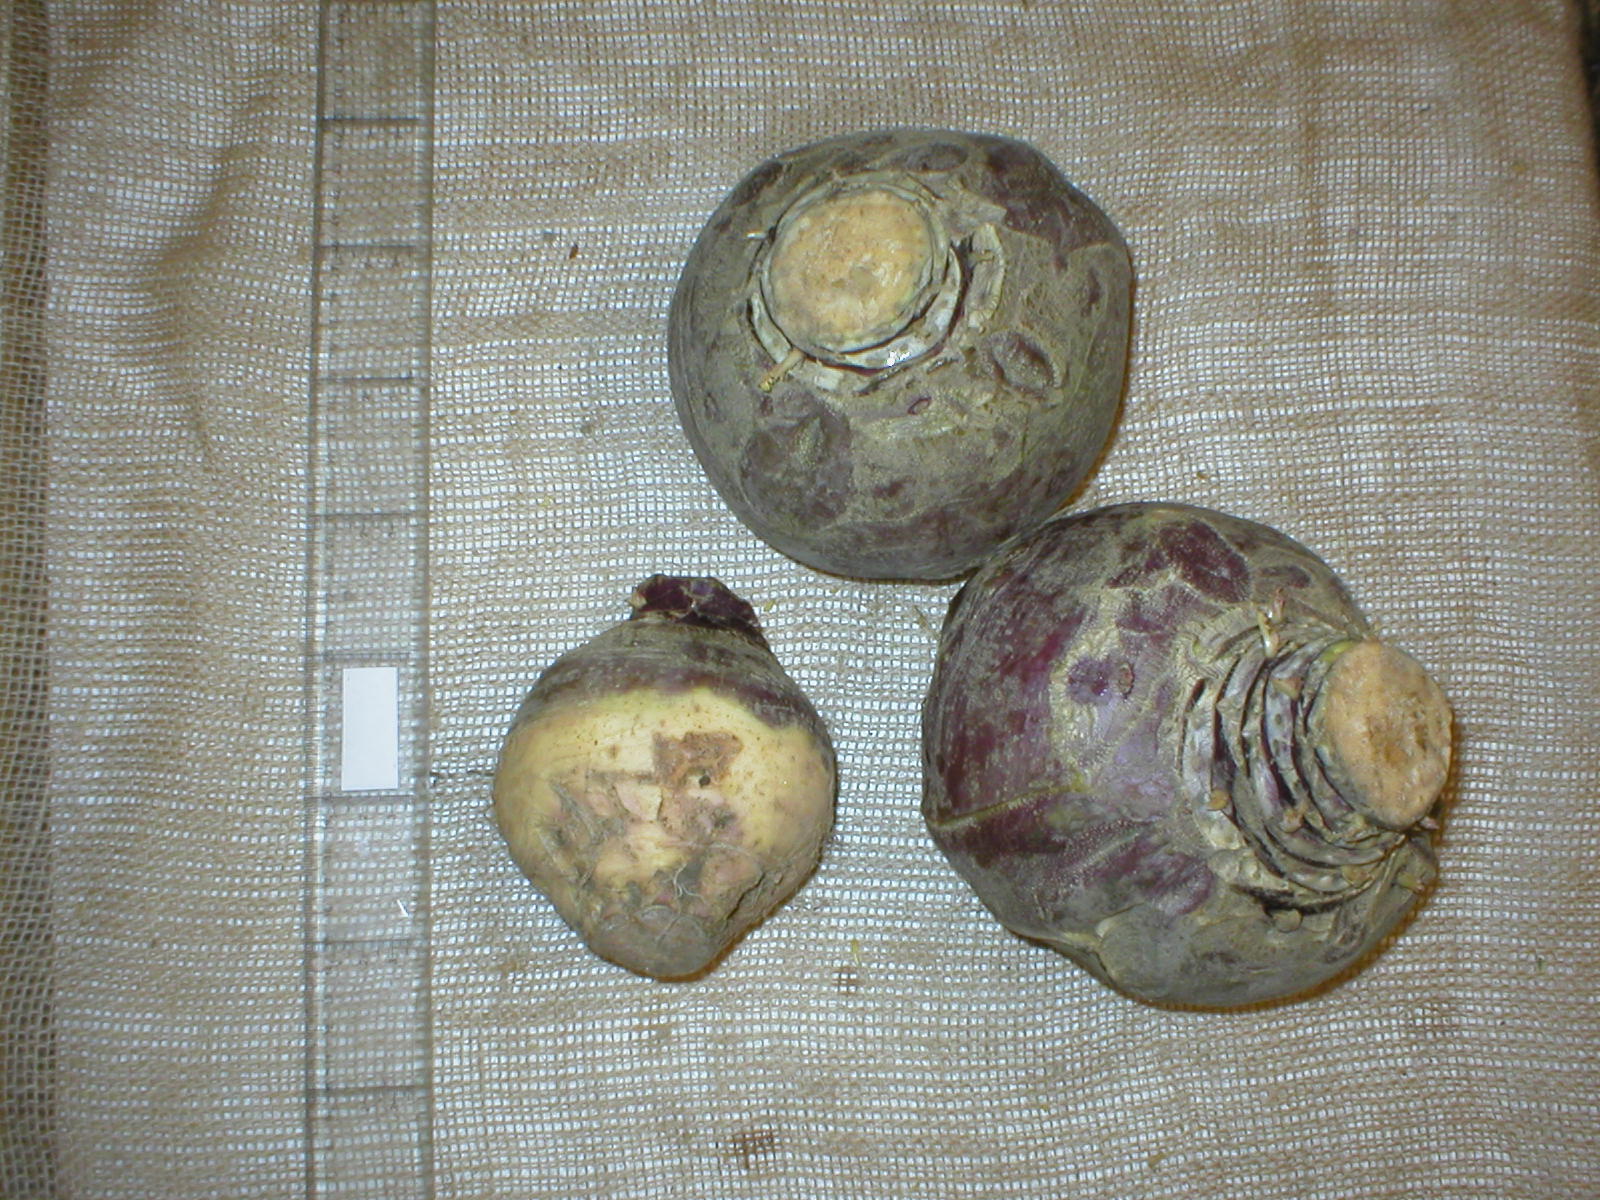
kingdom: Plantae
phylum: Tracheophyta
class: Magnoliopsida
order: Brassicales
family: Brassicaceae
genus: Brassica
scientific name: Brassica napus
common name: Rape
